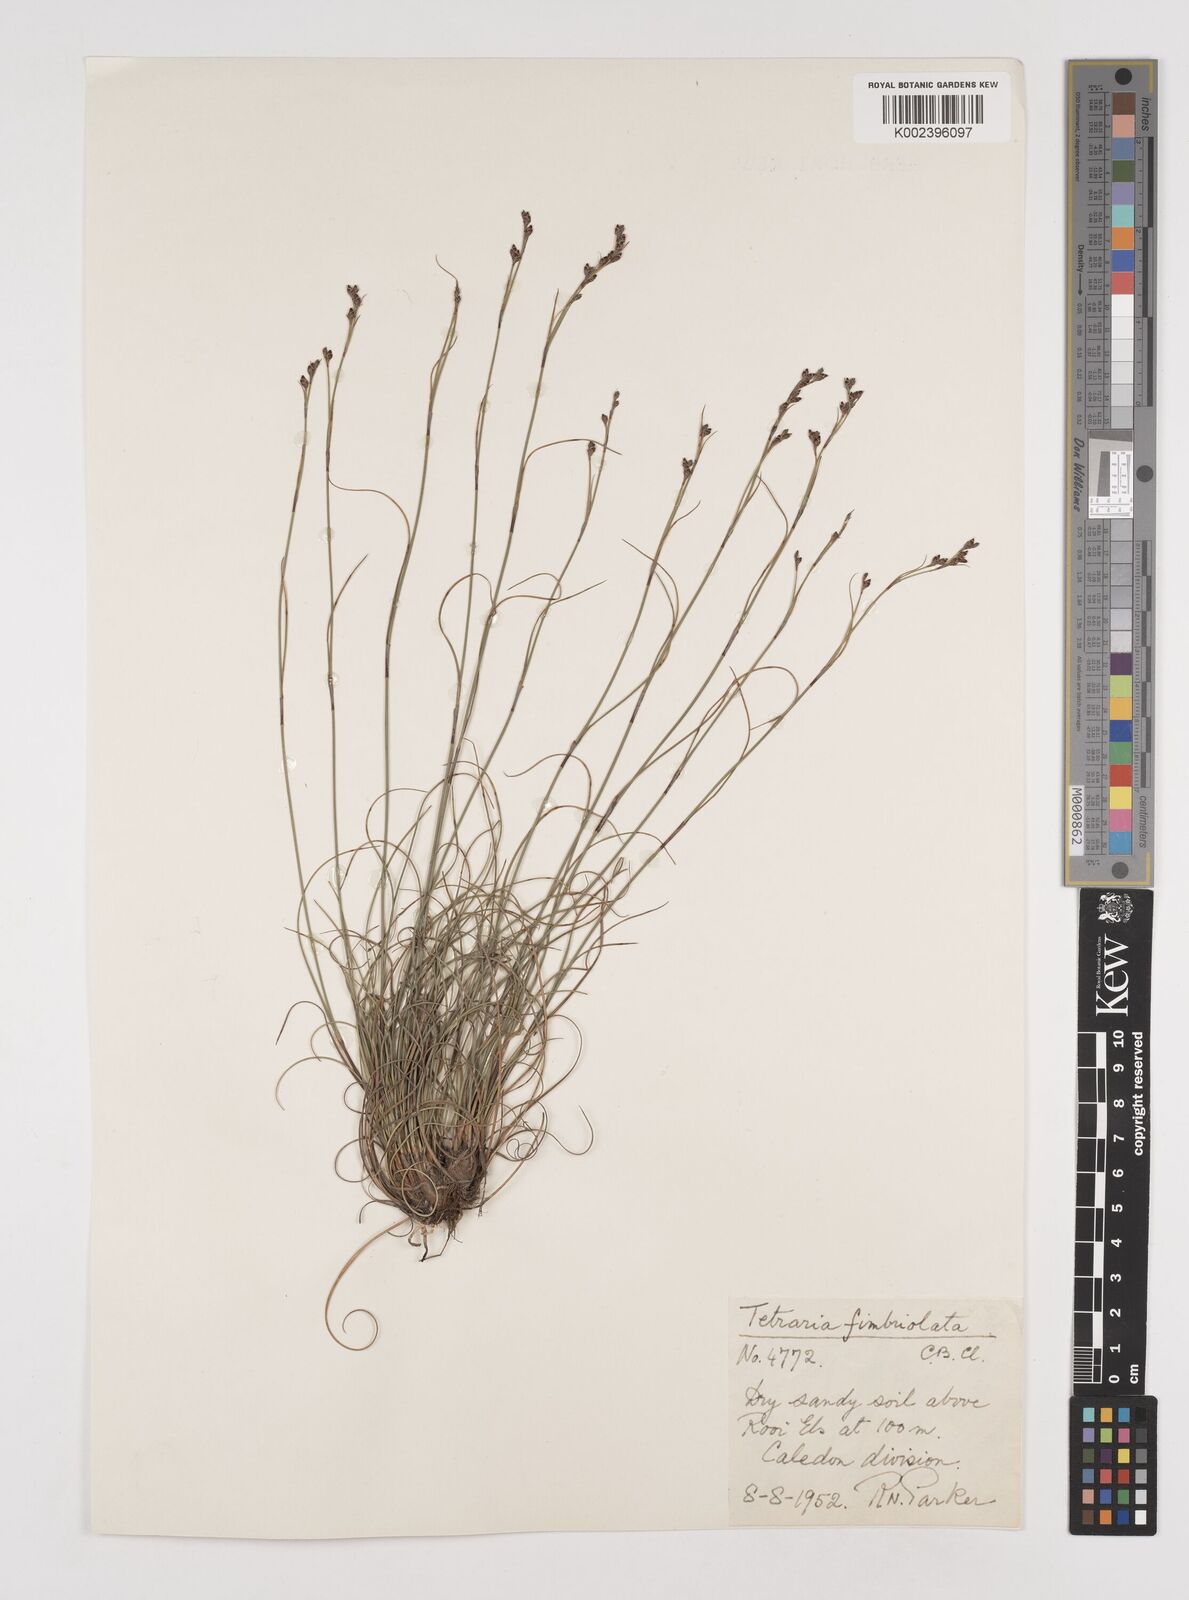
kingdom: Plantae
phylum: Tracheophyta
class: Liliopsida
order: Poales
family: Cyperaceae
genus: Tetraria
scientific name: Tetraria fimbriolata
